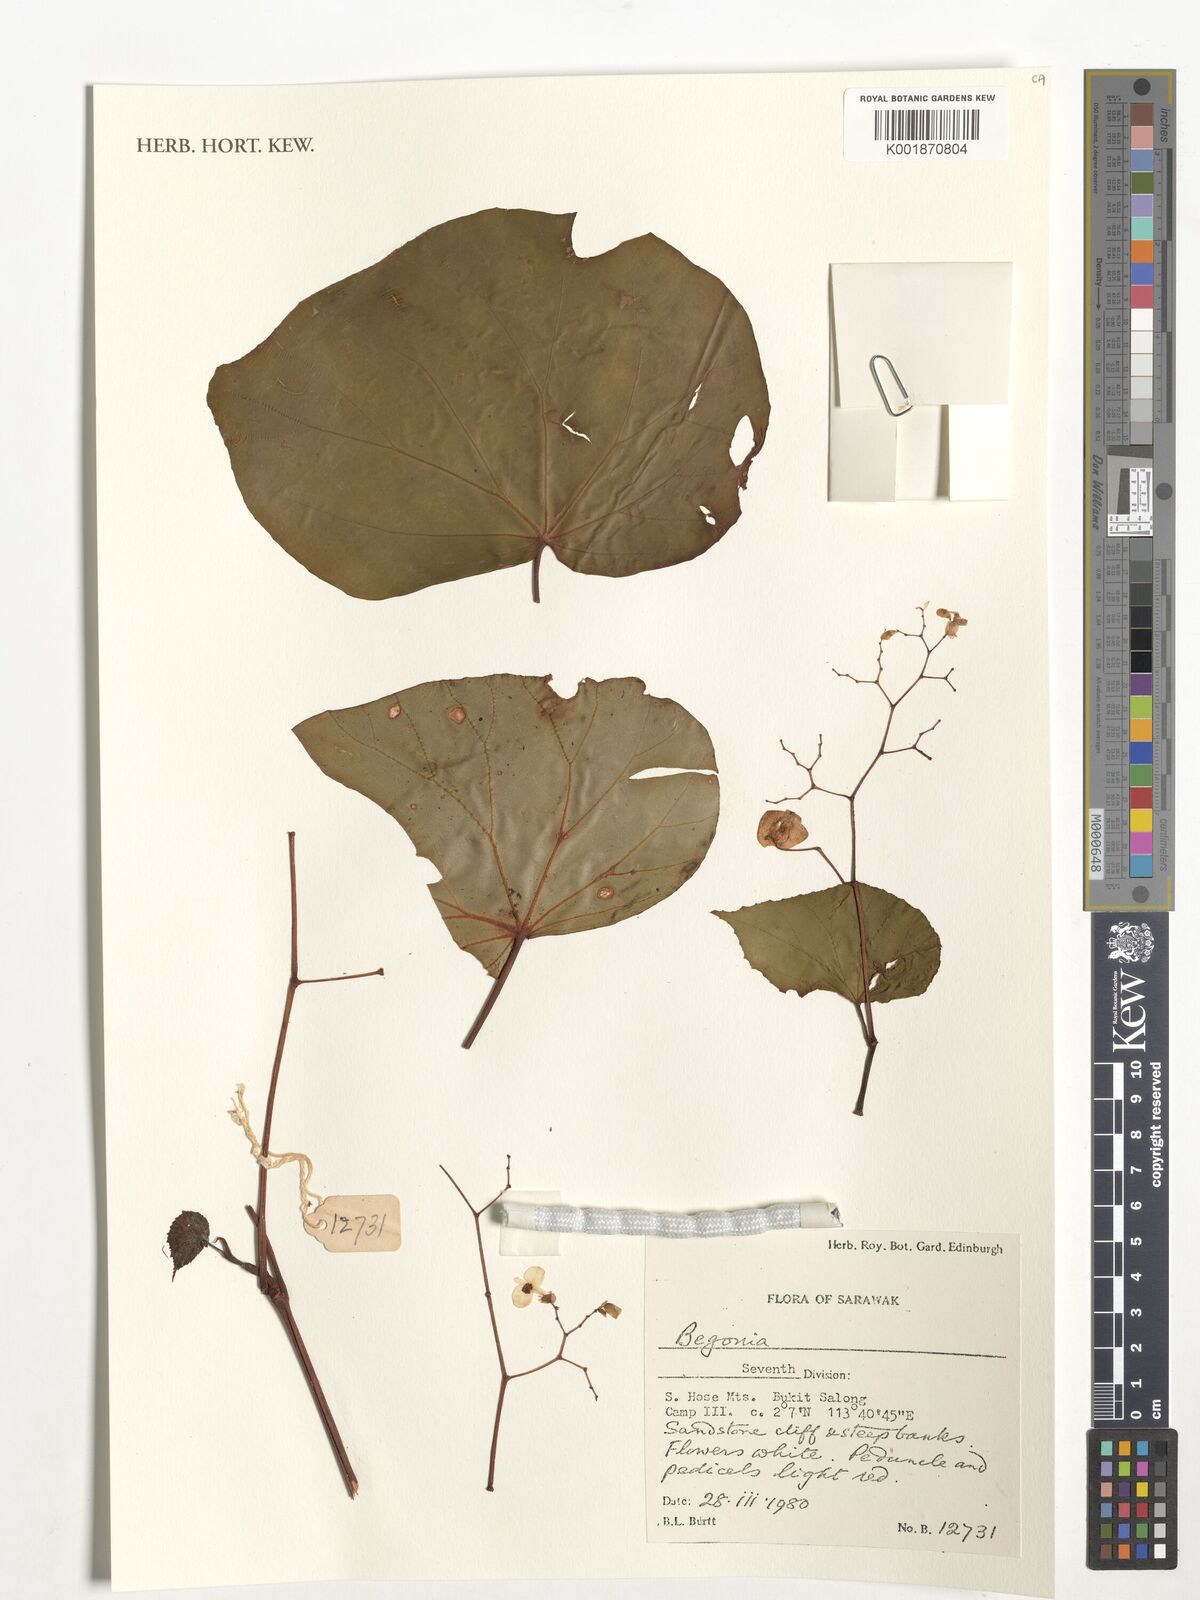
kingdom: Plantae
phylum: Tracheophyta
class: Magnoliopsida
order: Cucurbitales
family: Begoniaceae
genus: Begonia
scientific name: Begonia
